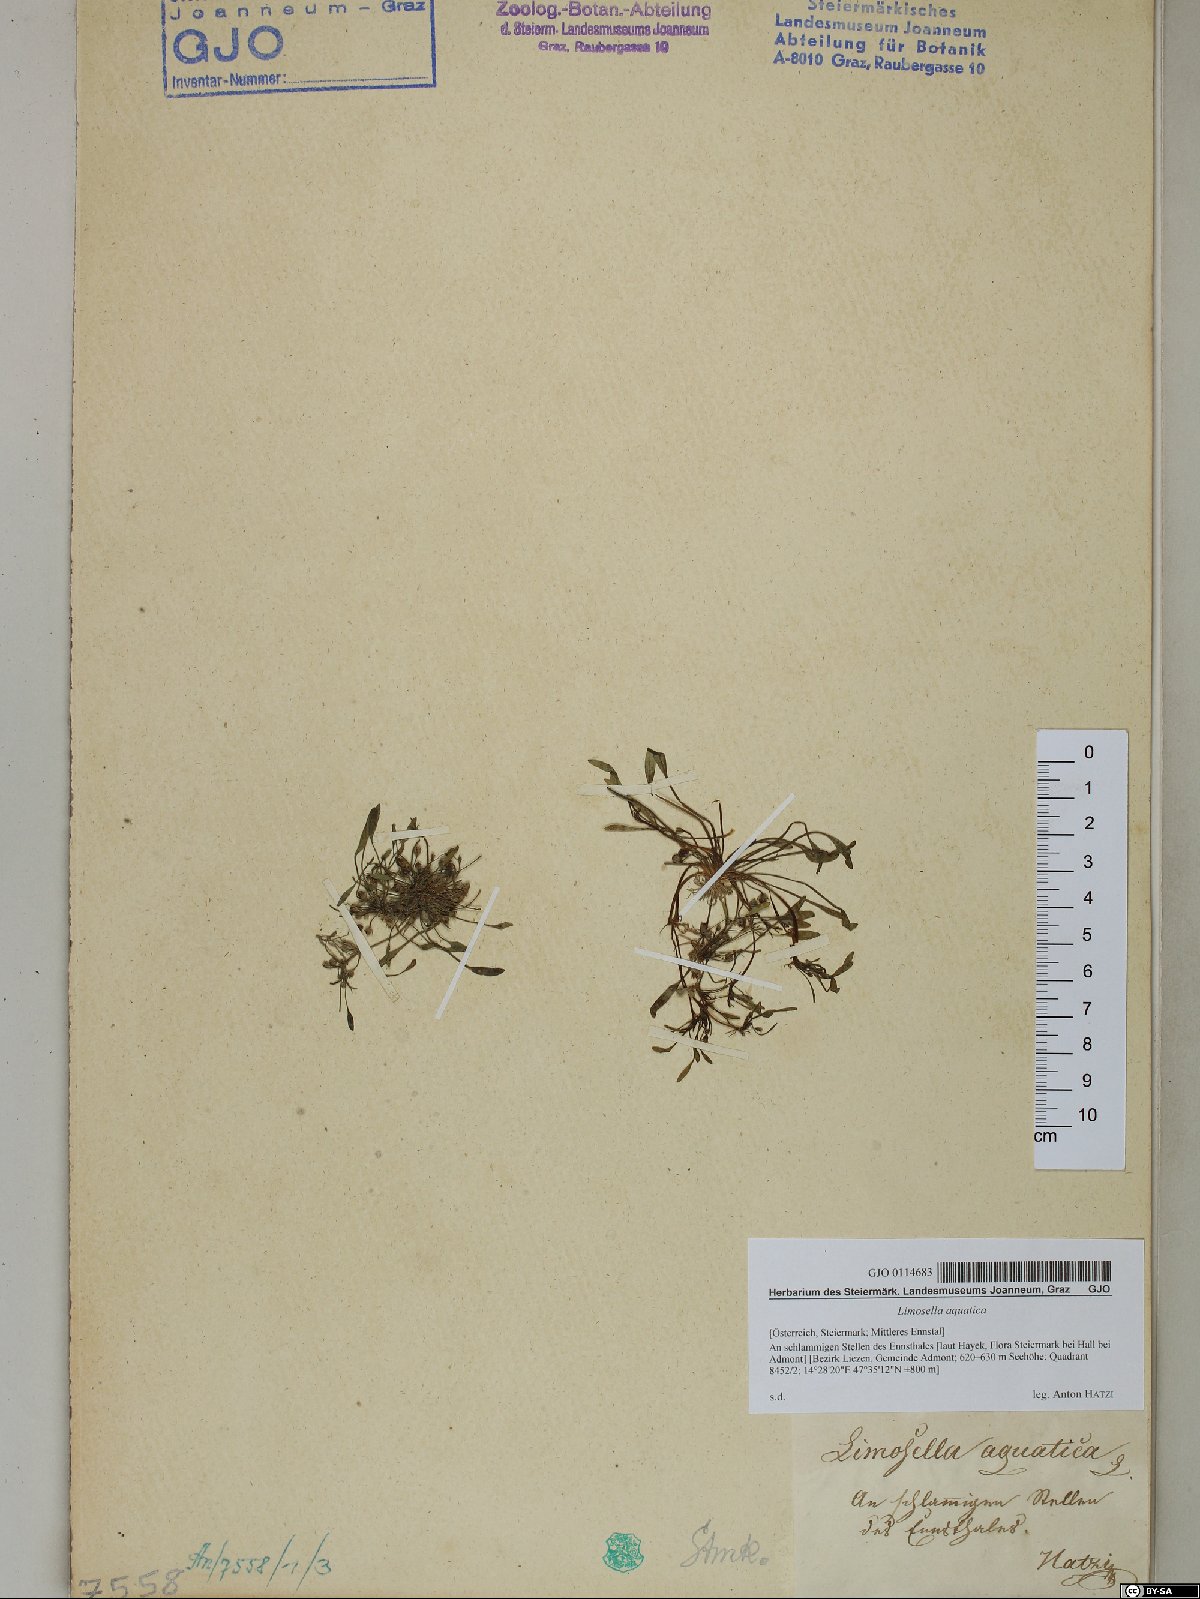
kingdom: Plantae
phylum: Tracheophyta
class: Magnoliopsida
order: Lamiales
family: Scrophulariaceae
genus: Limosella
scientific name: Limosella aquatica
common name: Mudwort
